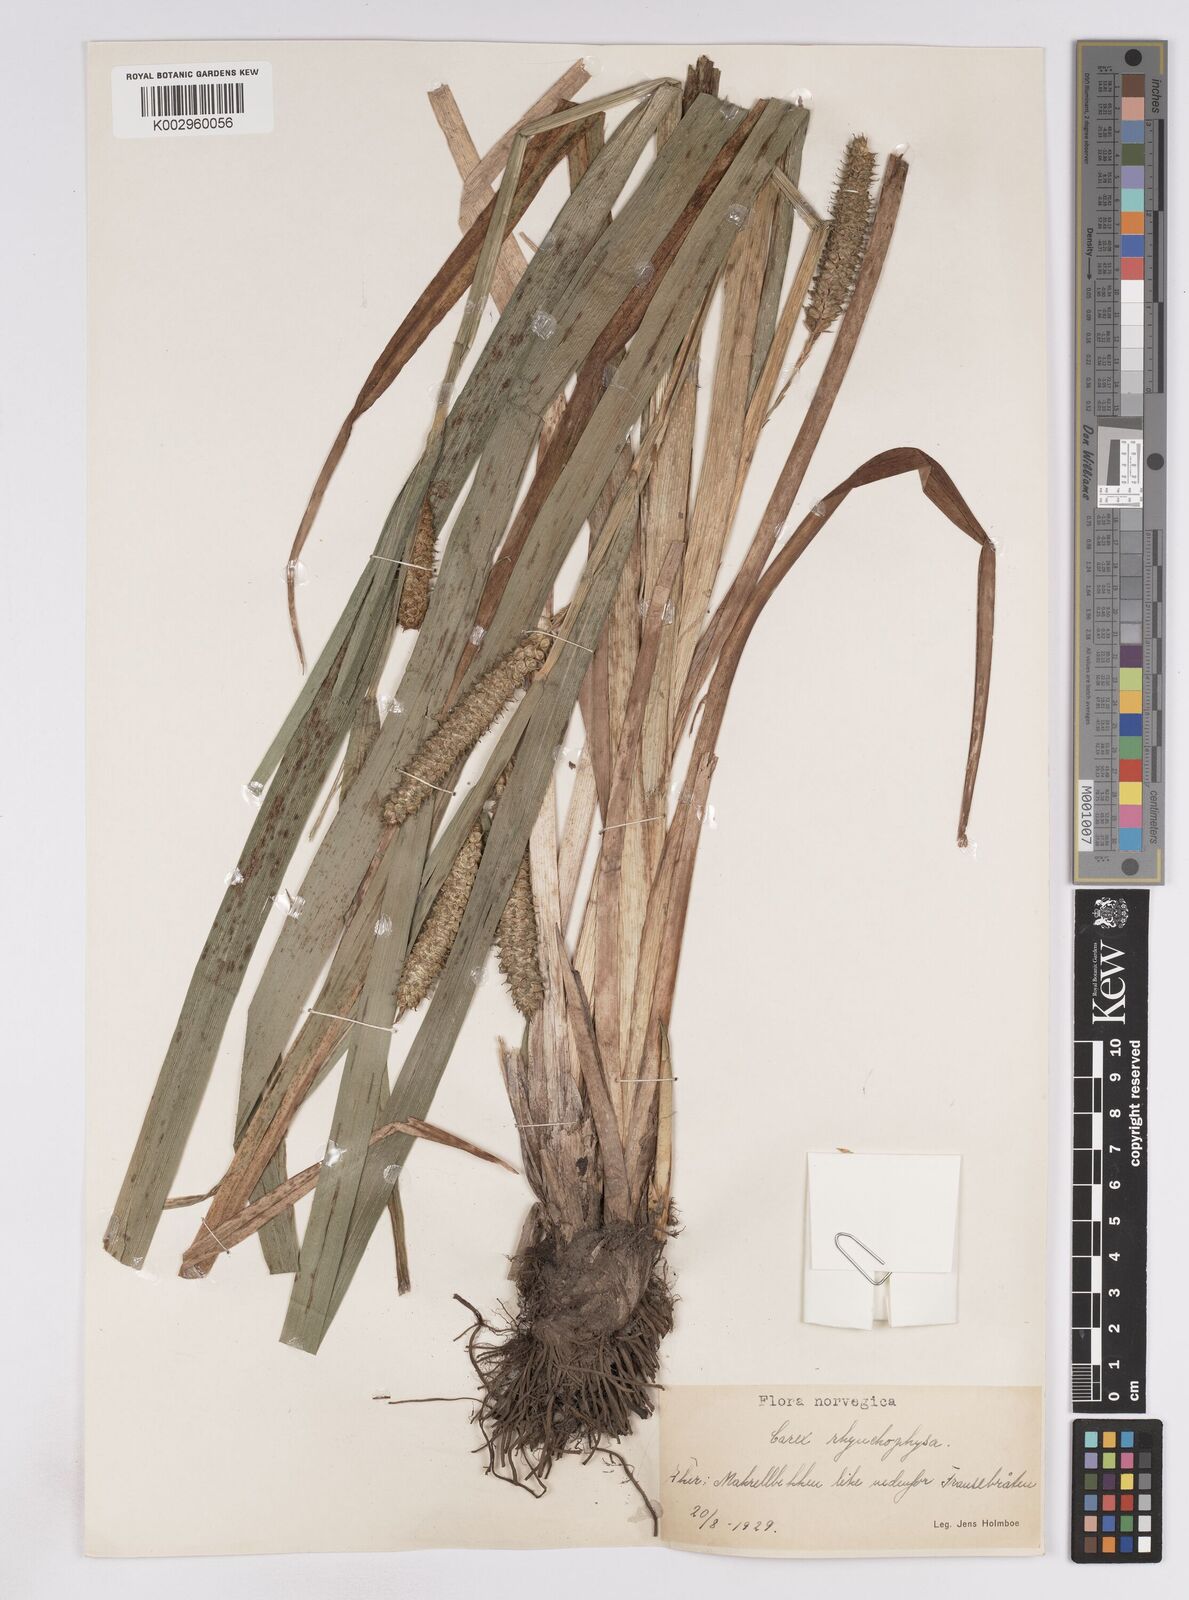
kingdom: Plantae
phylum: Tracheophyta
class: Liliopsida
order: Poales
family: Cyperaceae
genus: Carex
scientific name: Carex utriculata
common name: Beaked sedge
